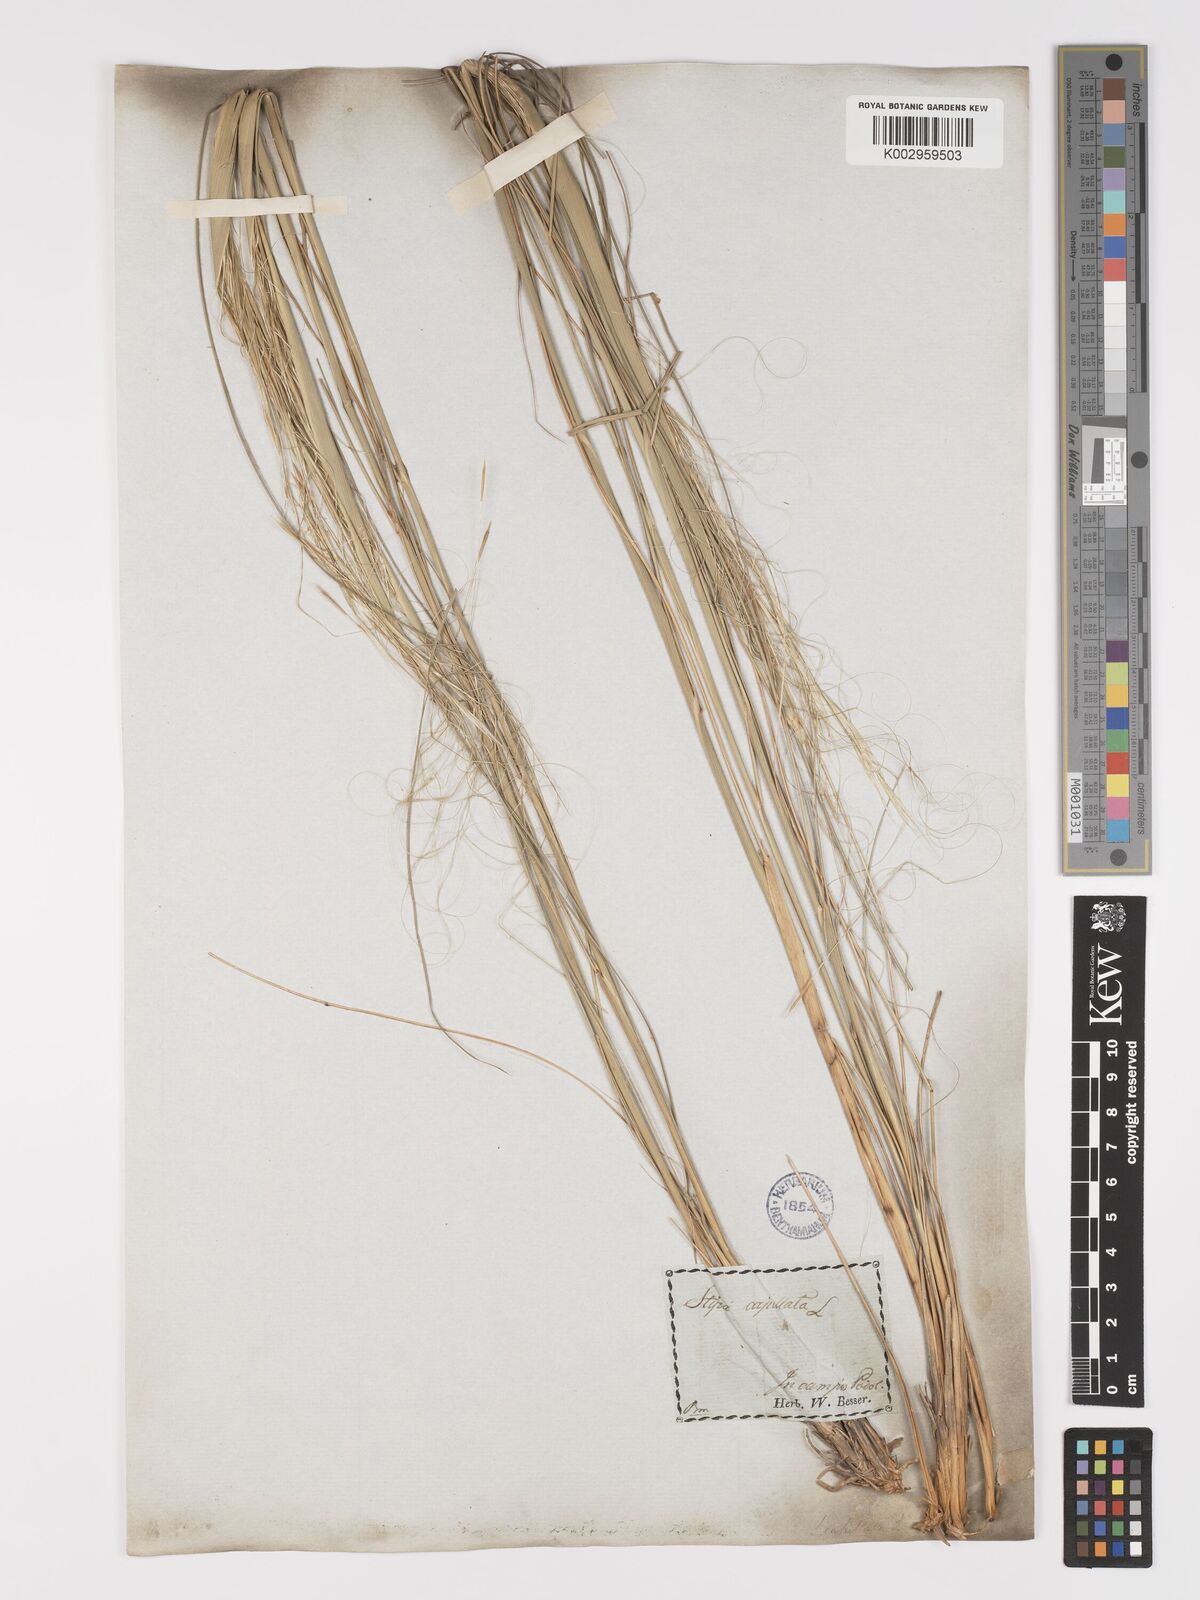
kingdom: Plantae
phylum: Tracheophyta
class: Liliopsida
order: Poales
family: Poaceae
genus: Stipa
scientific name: Stipa capillata
